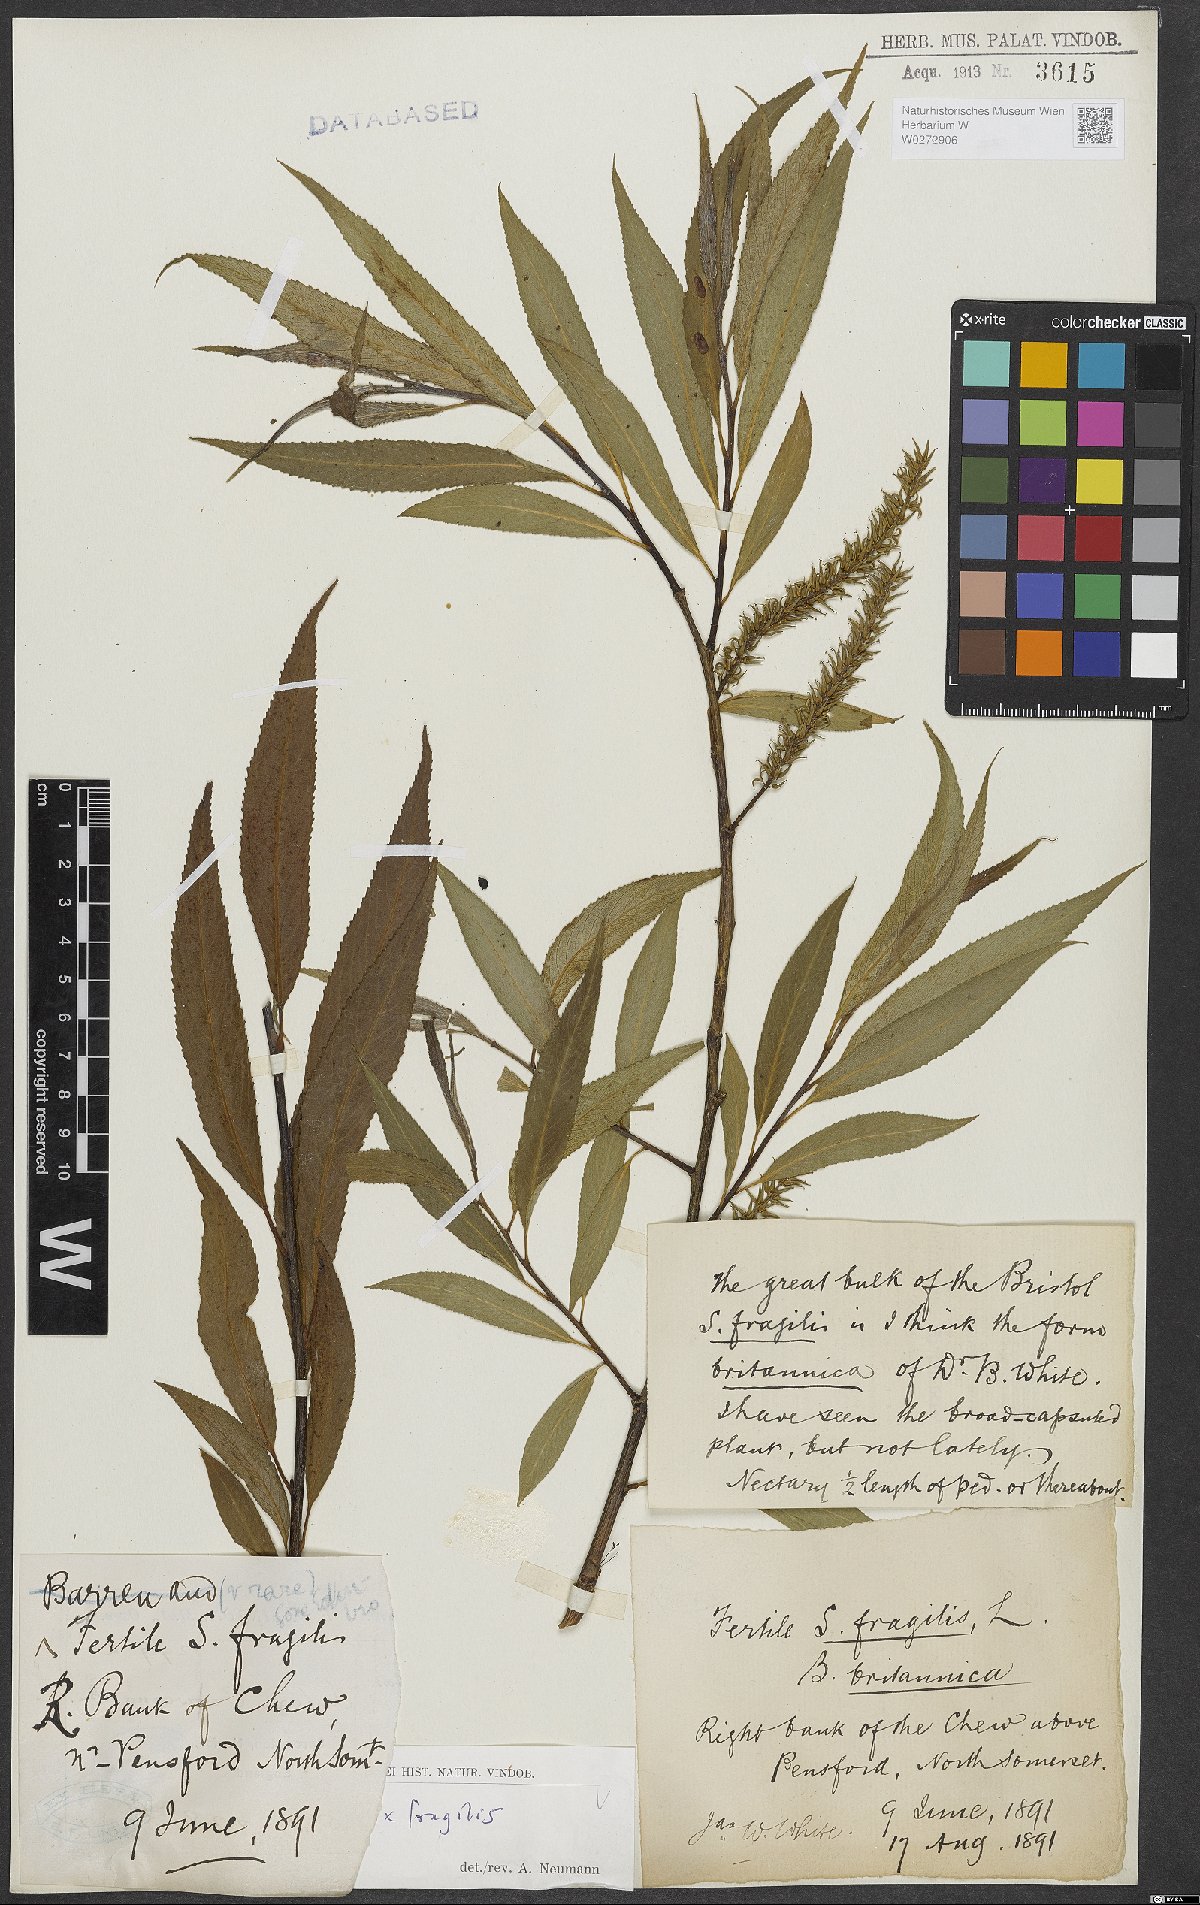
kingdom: Plantae
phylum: Tracheophyta
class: Magnoliopsida
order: Malpighiales
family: Salicaceae
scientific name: Salicaceae
